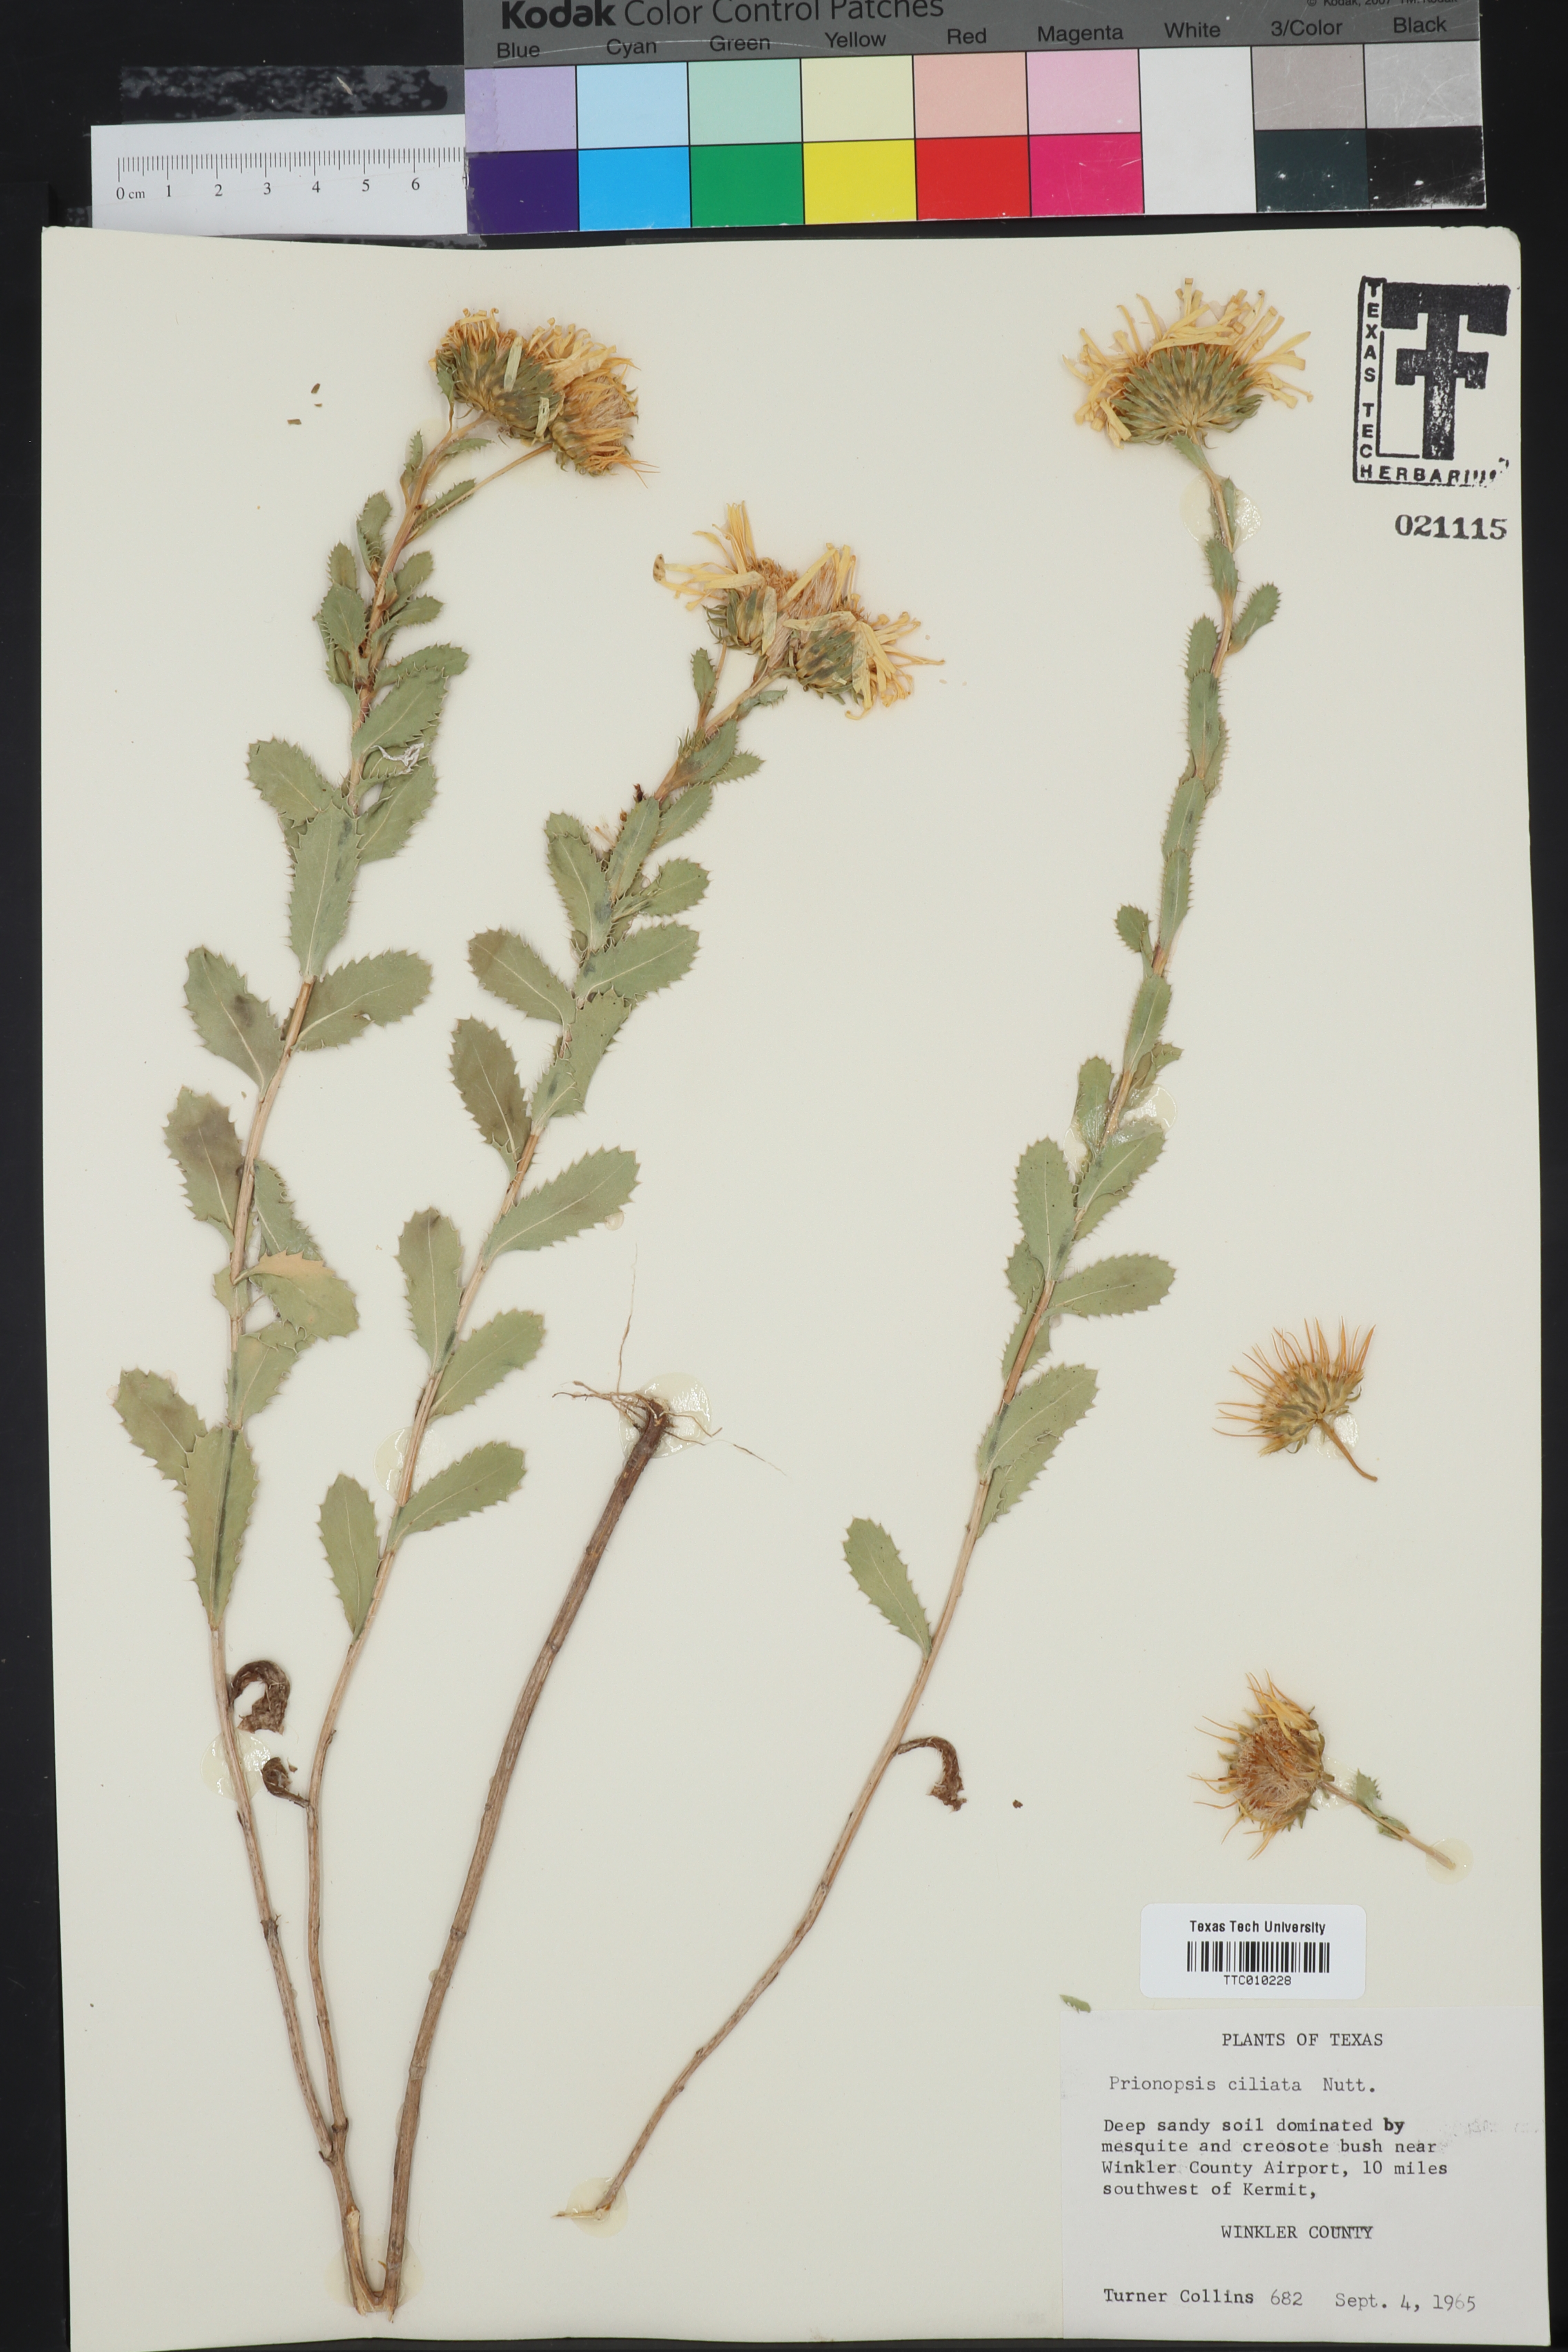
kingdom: Plantae
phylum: Tracheophyta
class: Magnoliopsida
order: Asterales
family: Asteraceae
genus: Grindelia
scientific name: Grindelia ciliata
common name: Goldenweed
